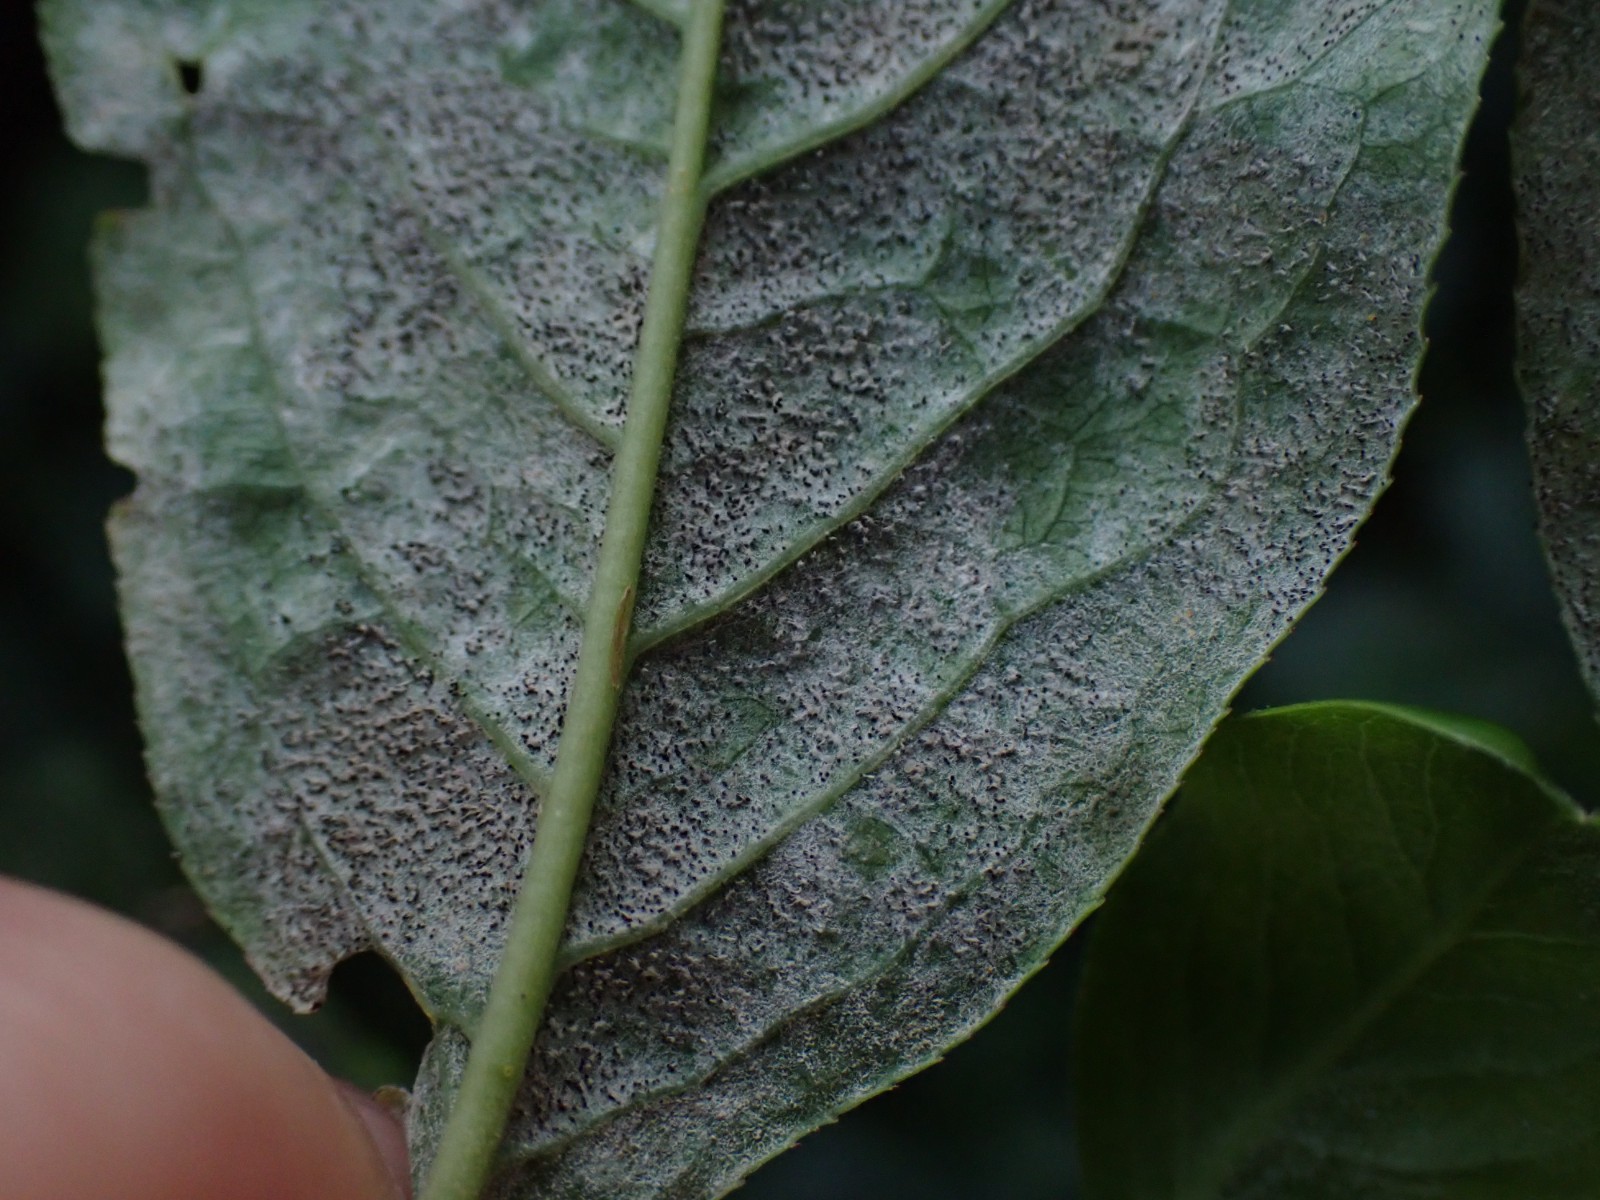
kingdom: Fungi
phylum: Ascomycota
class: Leotiomycetes
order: Helotiales
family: Erysiphaceae
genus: Erysiphe
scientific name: Erysiphe euonymi
